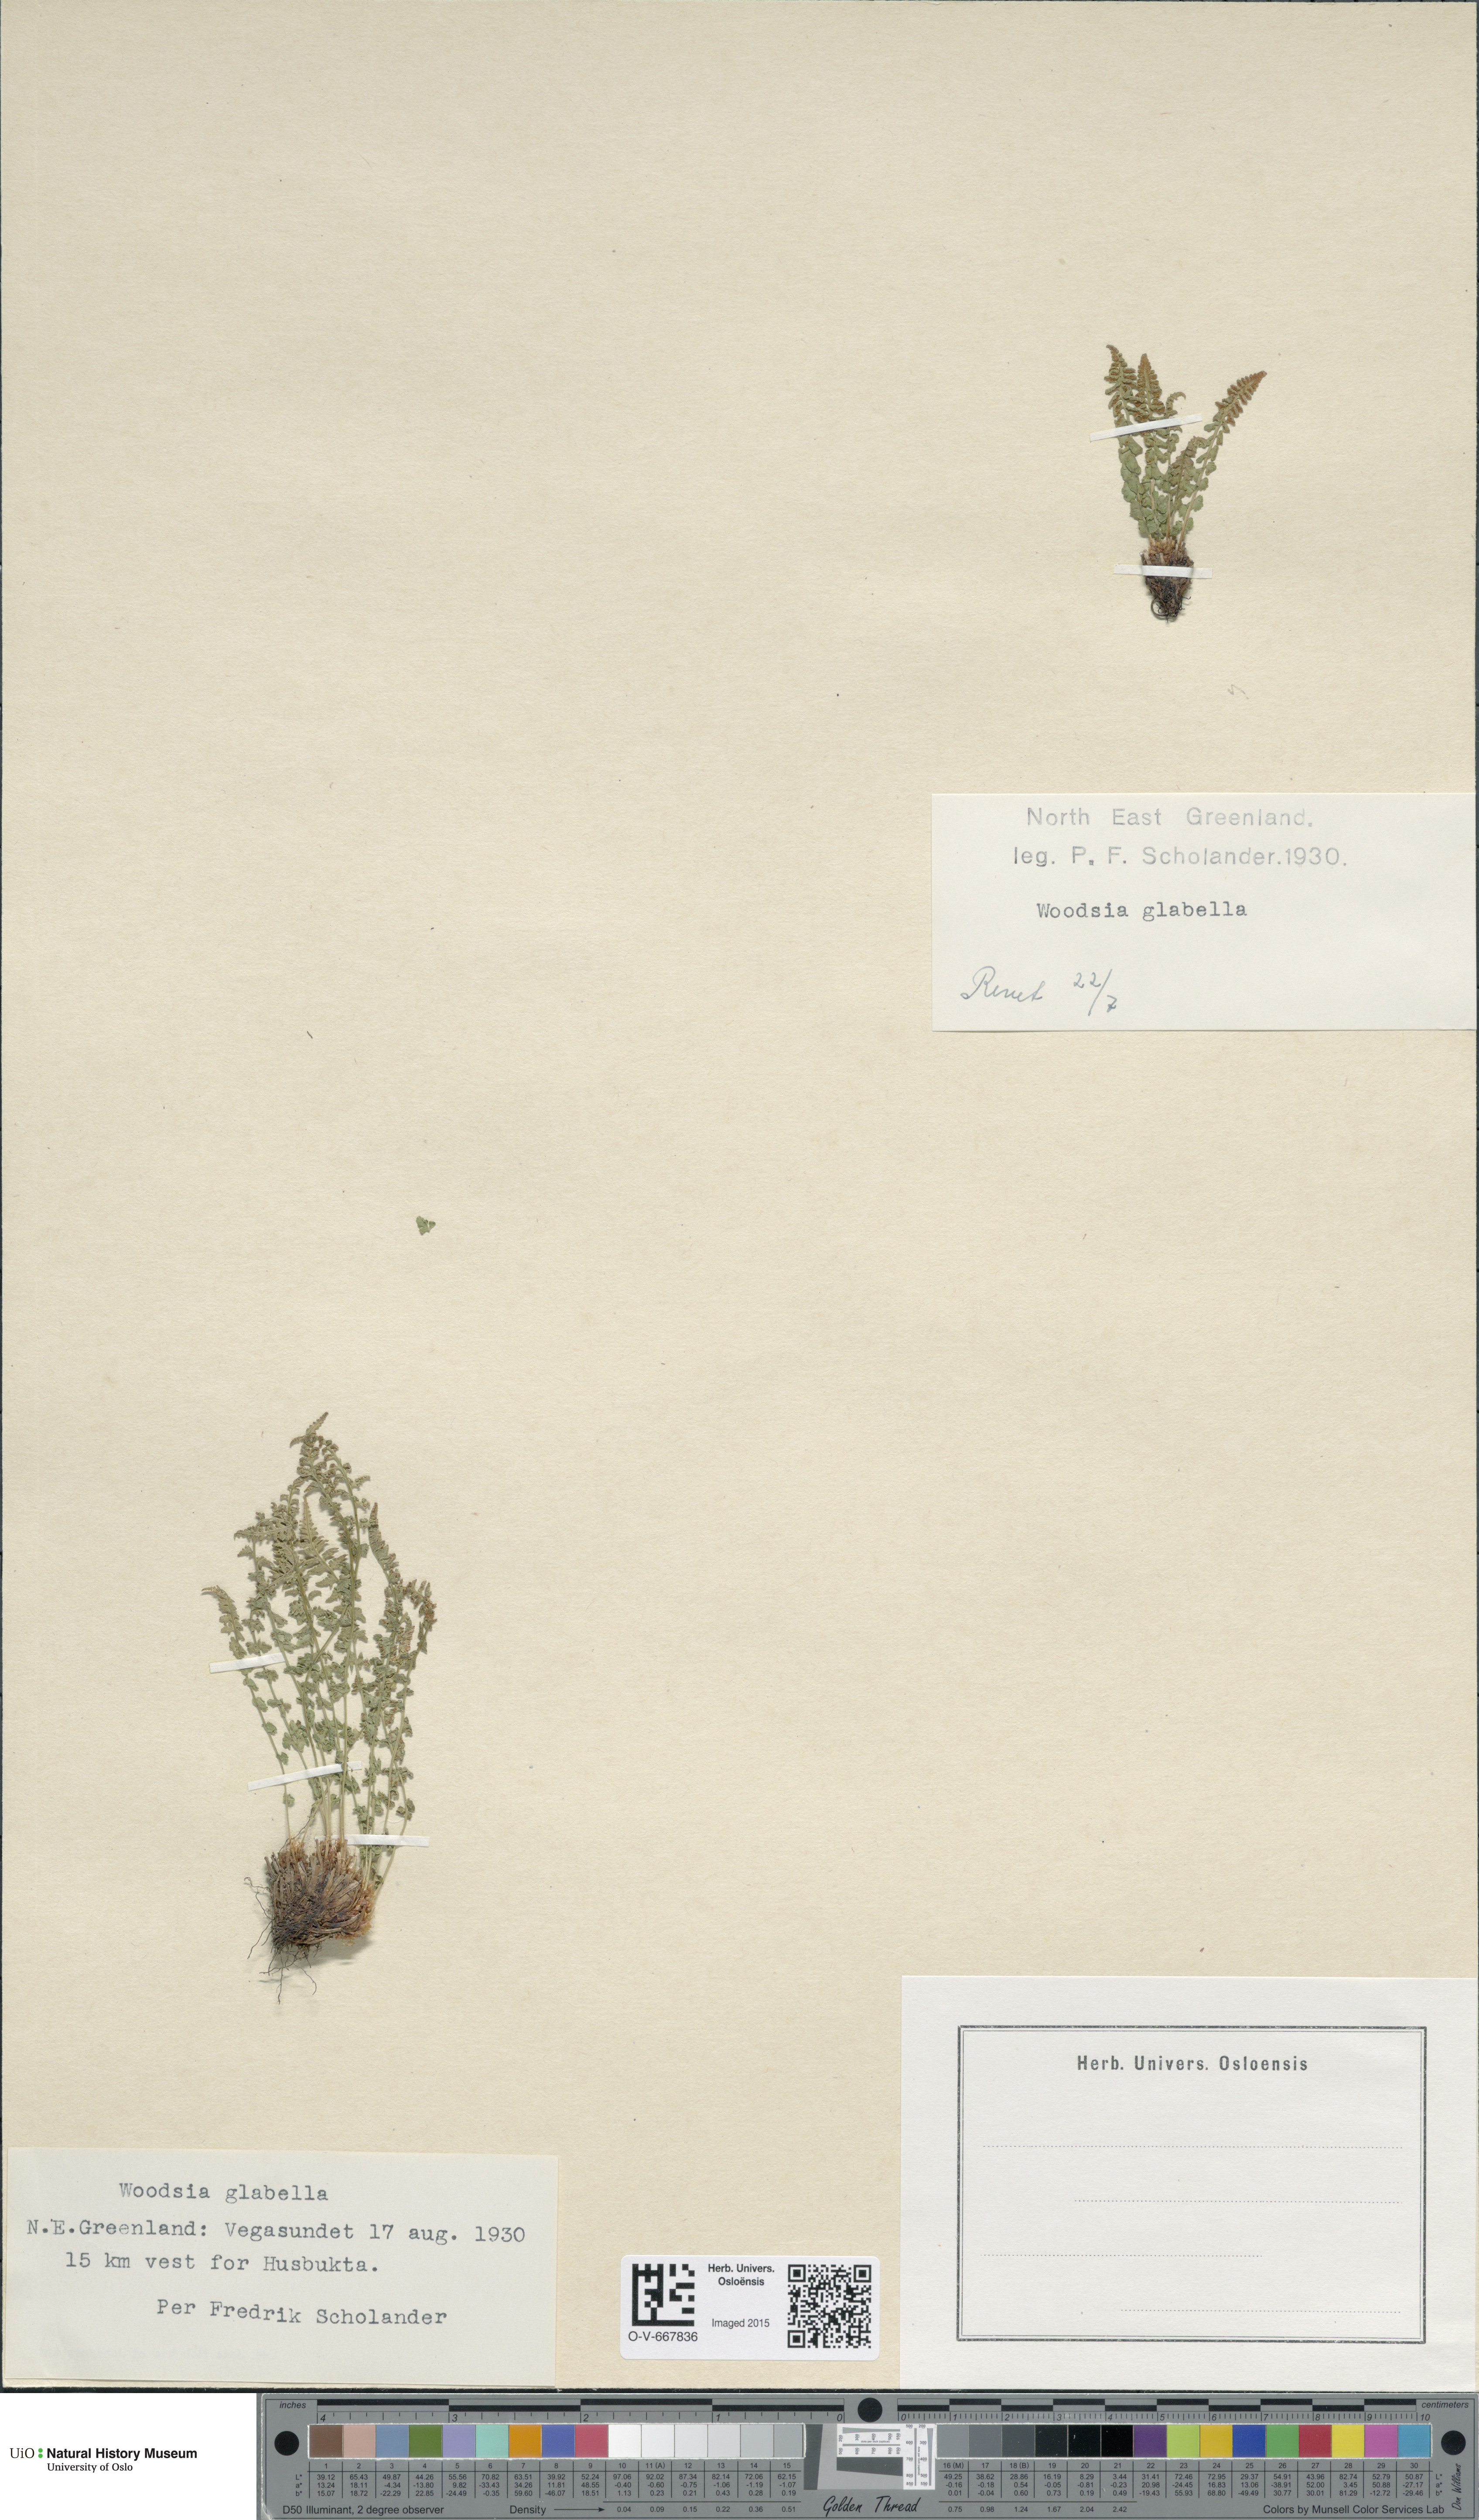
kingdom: Plantae
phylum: Tracheophyta
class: Polypodiopsida
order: Polypodiales
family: Woodsiaceae
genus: Woodsia
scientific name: Woodsia glabella
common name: Smooth woodsia
